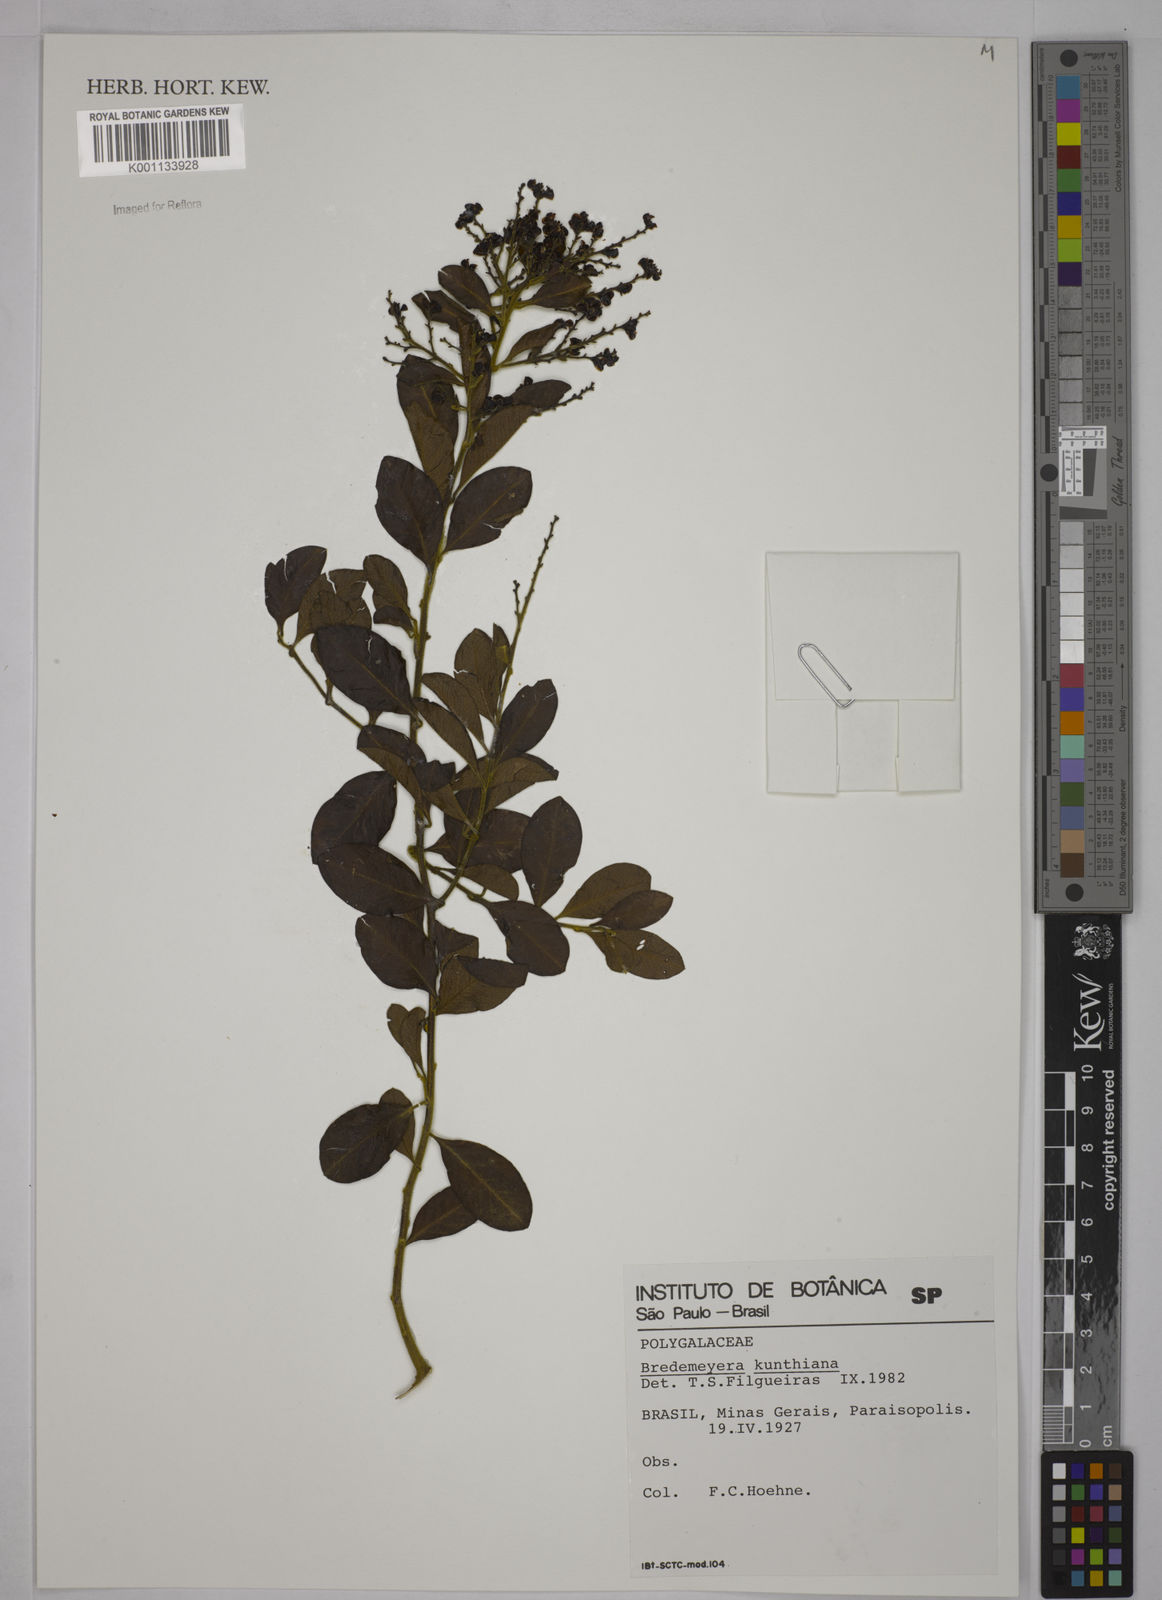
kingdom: Plantae
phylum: Tracheophyta
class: Magnoliopsida
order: Fabales
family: Polygalaceae
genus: Bredemeyera
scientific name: Bredemeyera hebeclada
